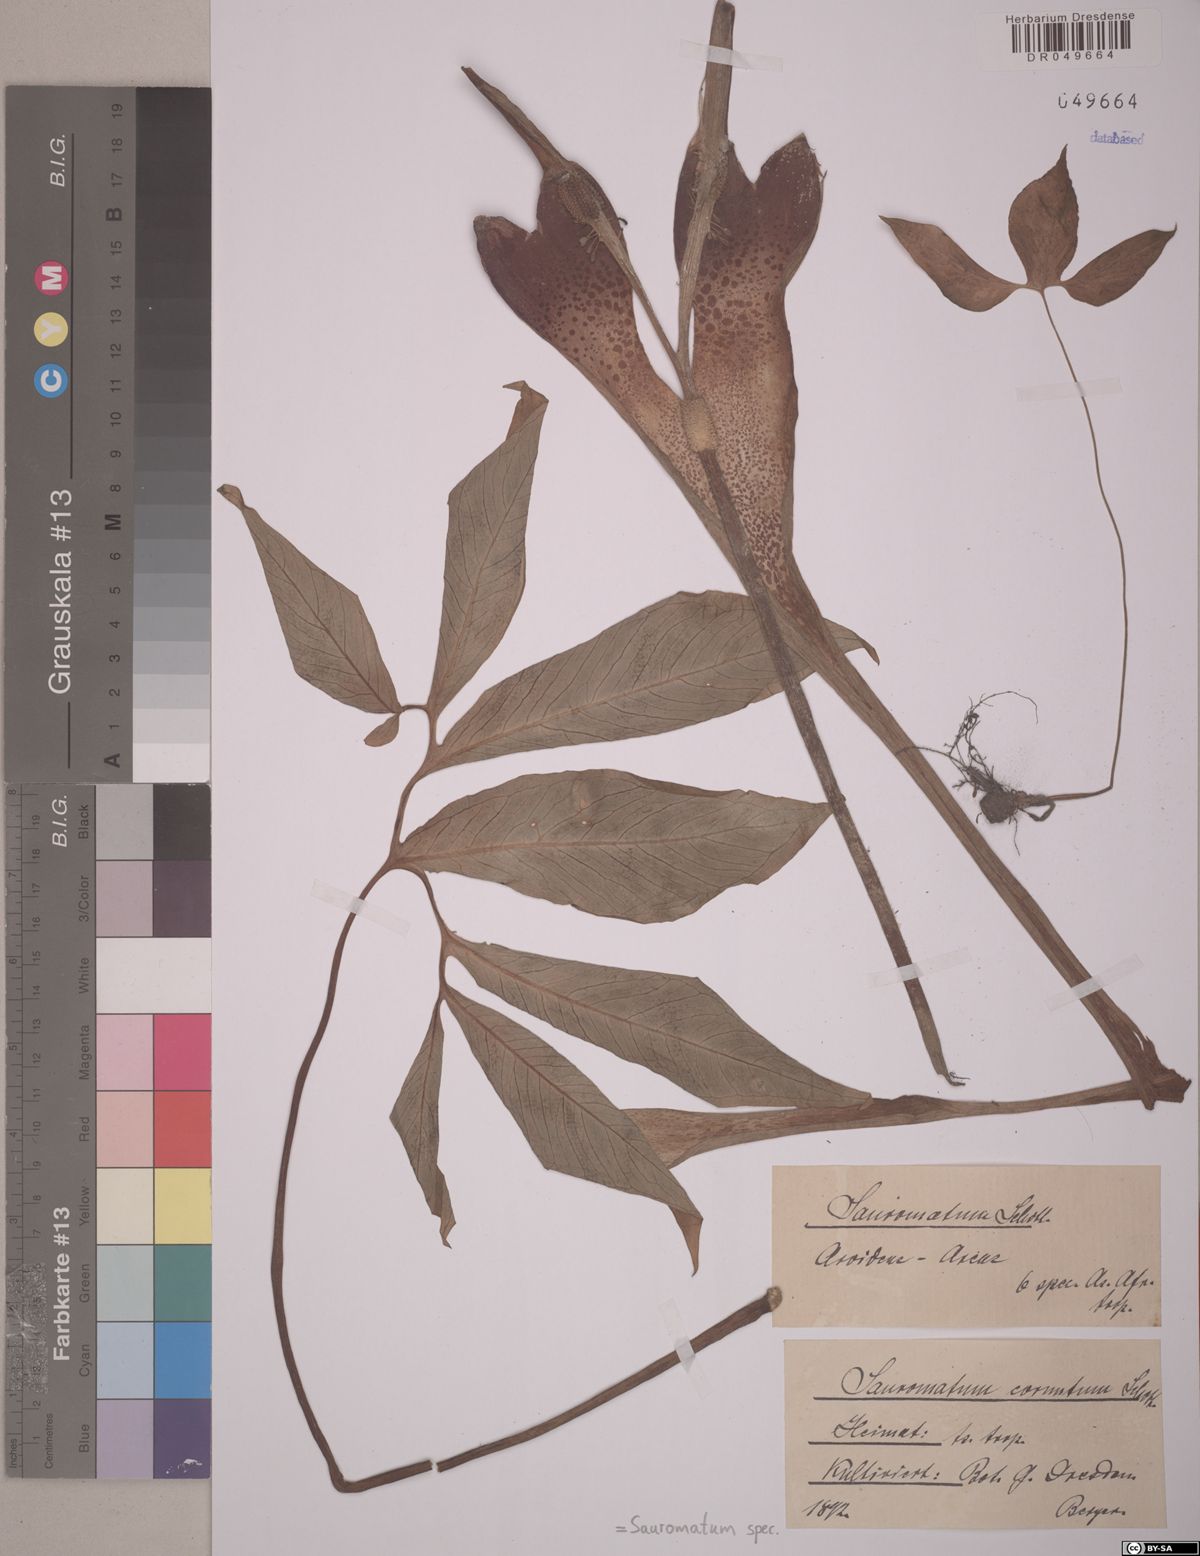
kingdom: Plantae
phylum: Tracheophyta
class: Liliopsida
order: Alismatales
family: Araceae
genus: Sauromatum
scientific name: Sauromatum
